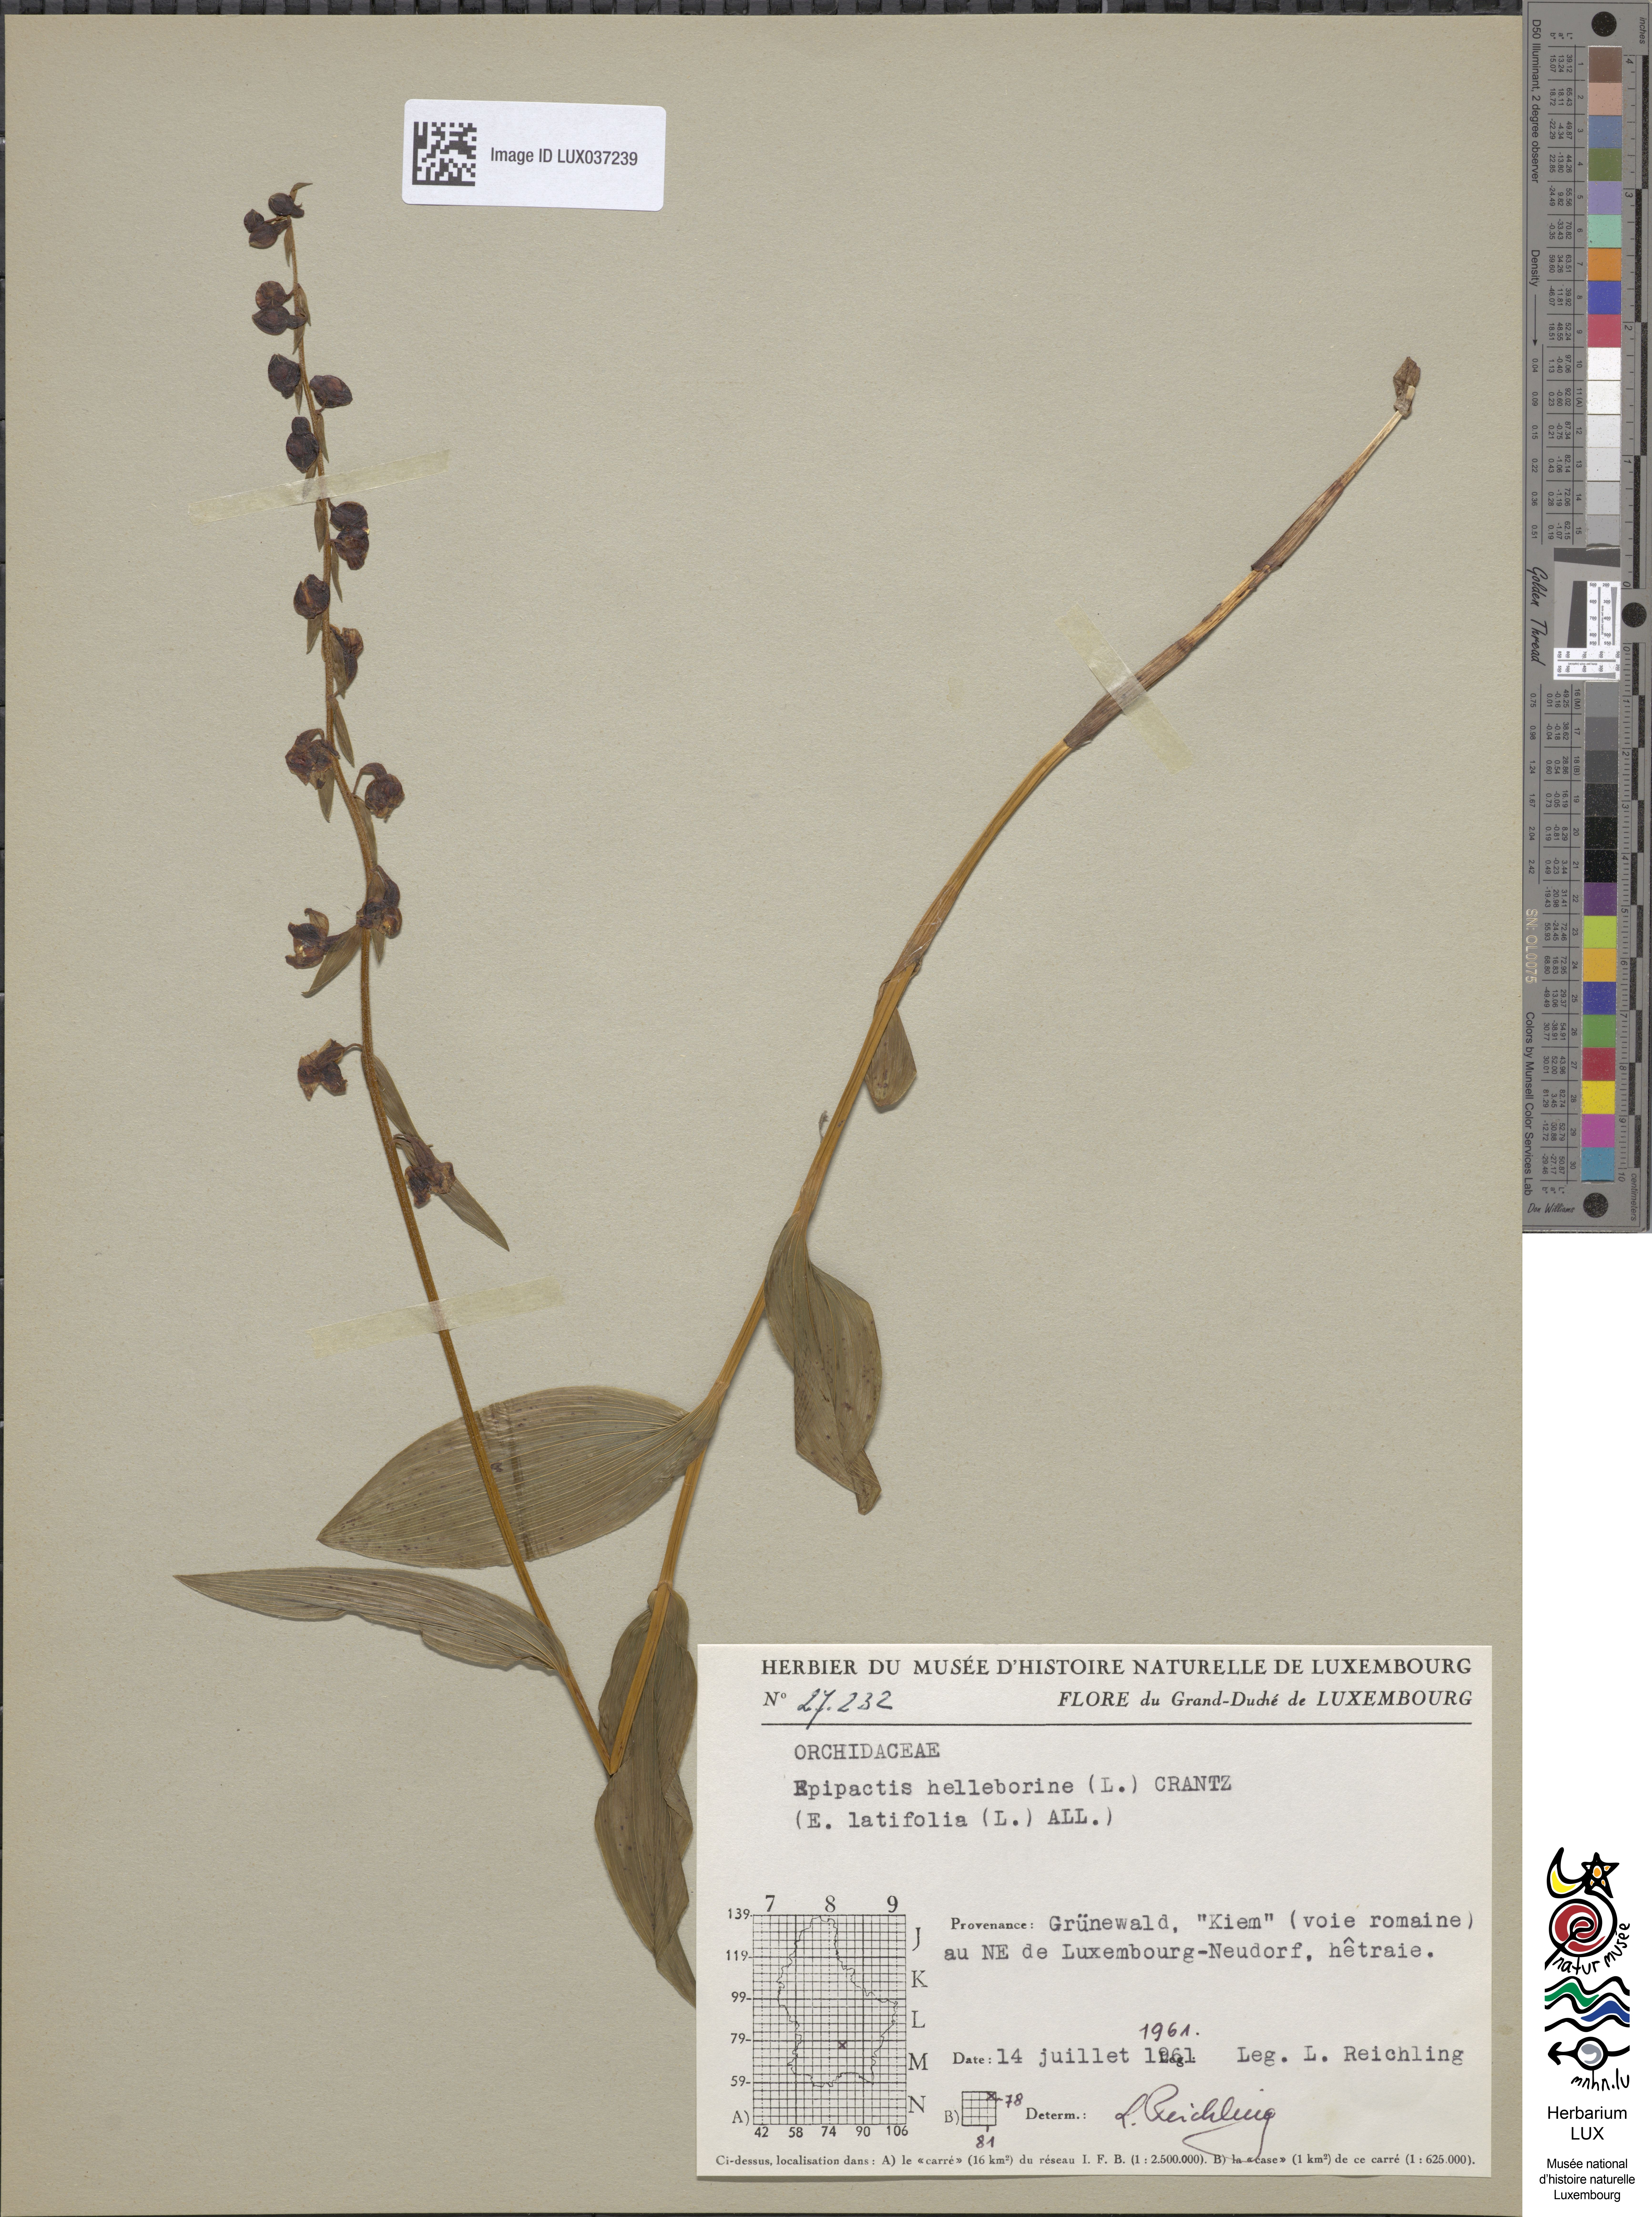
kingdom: Plantae
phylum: Tracheophyta
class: Liliopsida
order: Asparagales
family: Orchidaceae
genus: Epipactis
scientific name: Epipactis helleborine
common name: Broad-leaved helleborine
